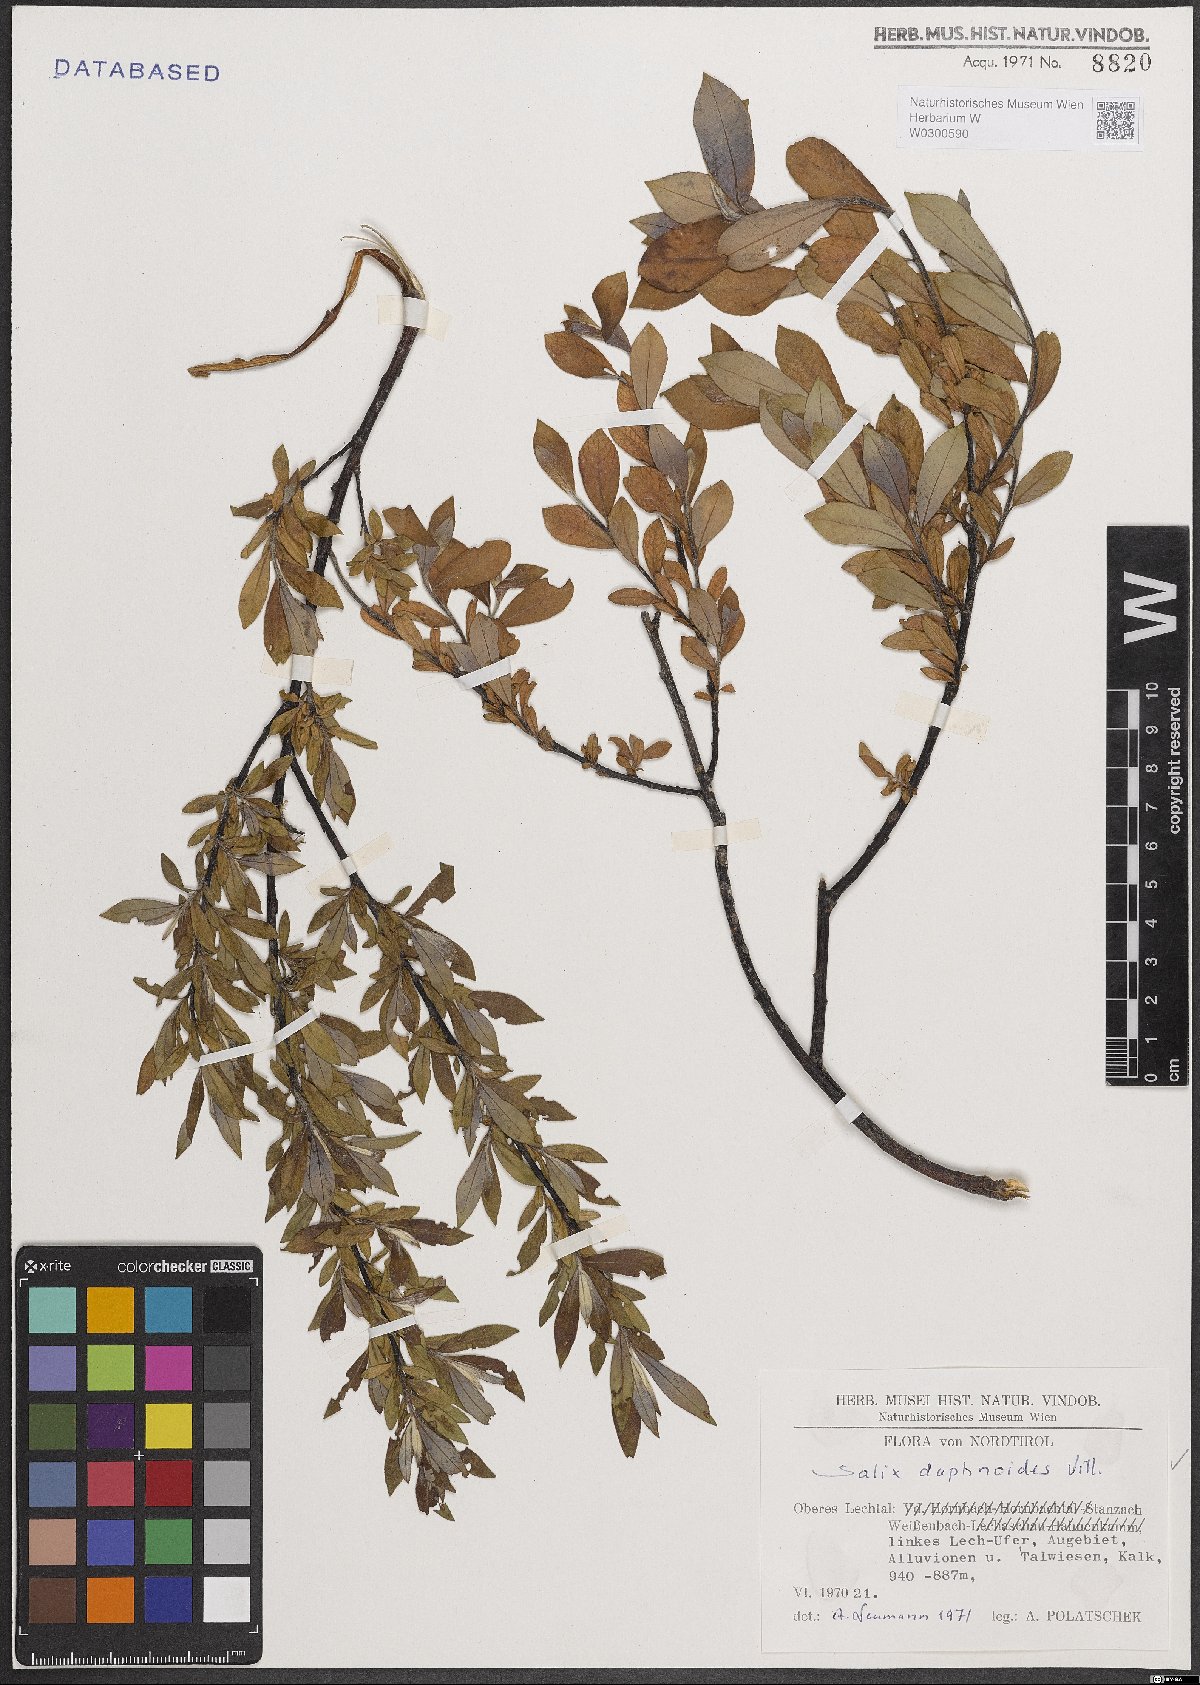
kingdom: Plantae
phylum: Tracheophyta
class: Magnoliopsida
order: Malpighiales
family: Salicaceae
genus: Salix
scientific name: Salix daphnoides
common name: European violet-willow
